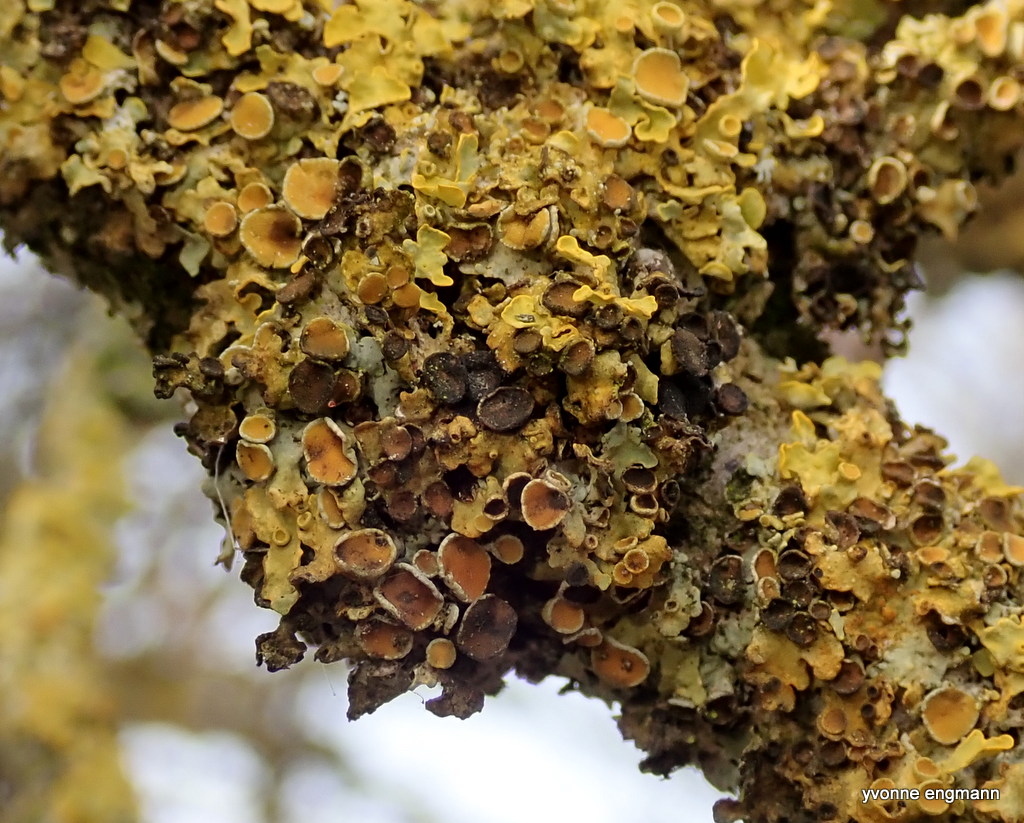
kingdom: Fungi
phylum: Ascomycota
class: Dothideomycetes
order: Mycosphaerellales
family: Teratosphaeriaceae
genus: Xanthoriicola
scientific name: Xanthoriicola physciae
